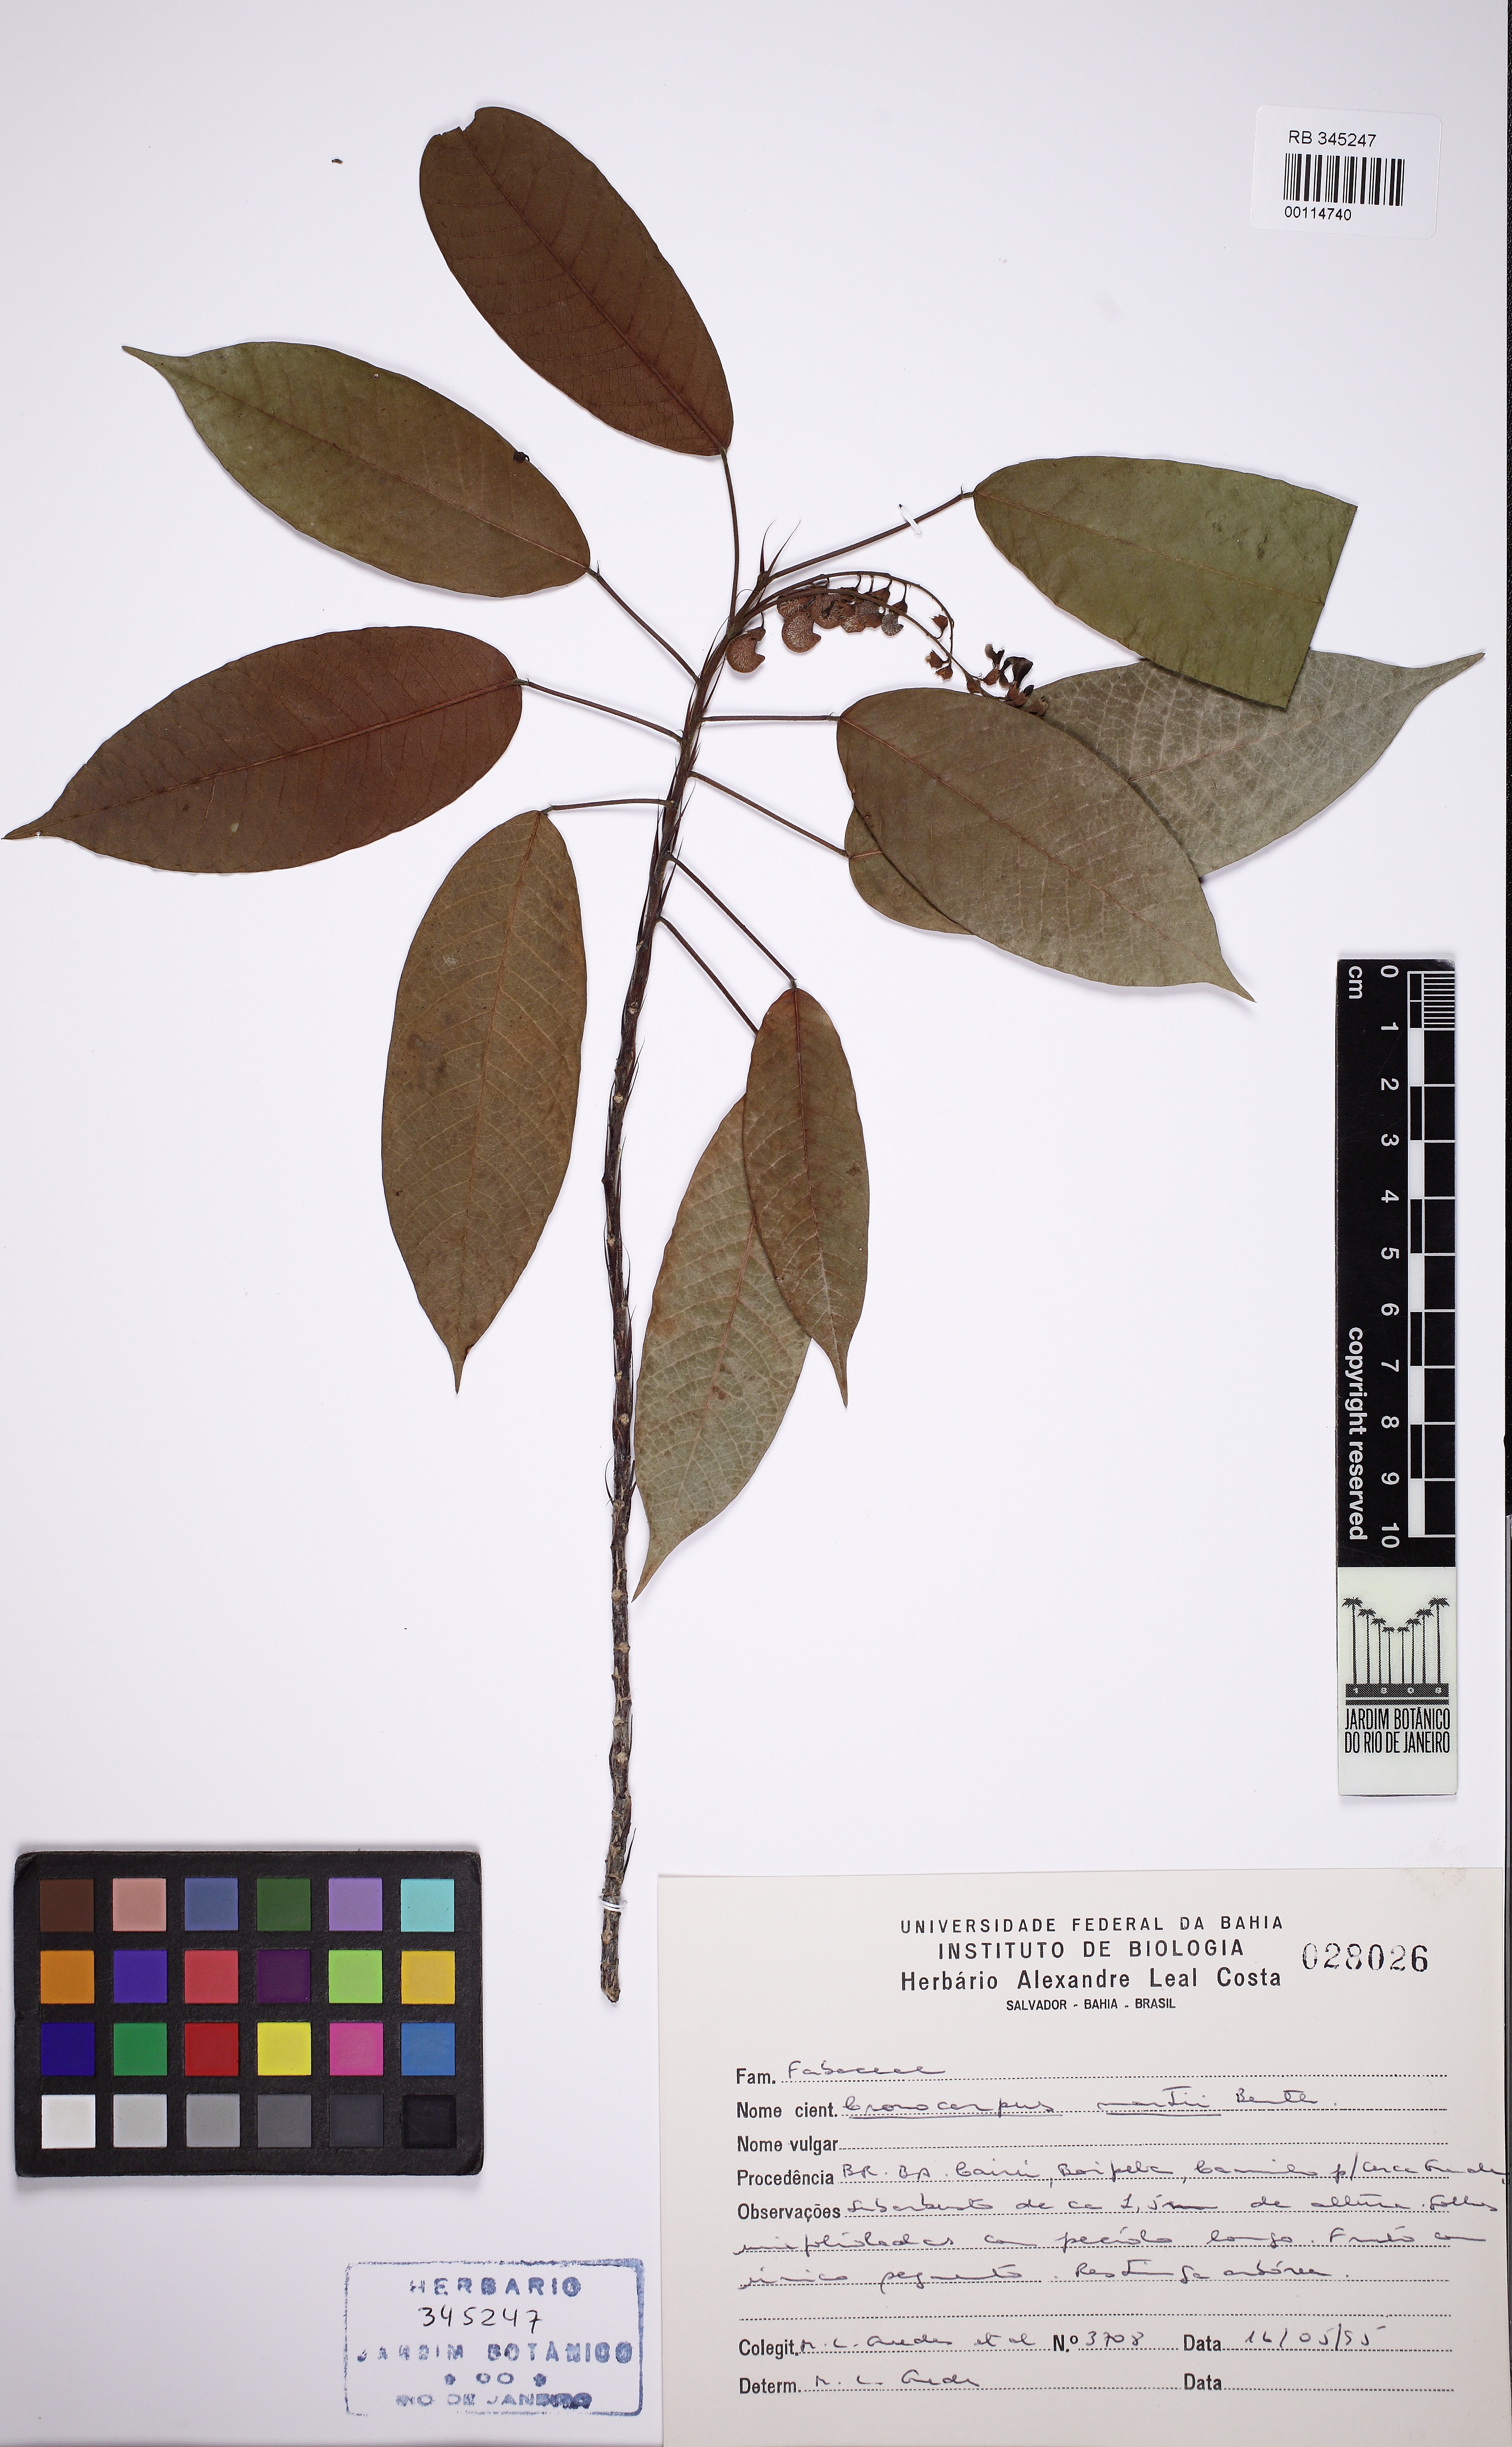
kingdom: Plantae
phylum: Tracheophyta
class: Magnoliopsida
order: Fabales
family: Fabaceae
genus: Cranocarpus
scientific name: Cranocarpus martii
